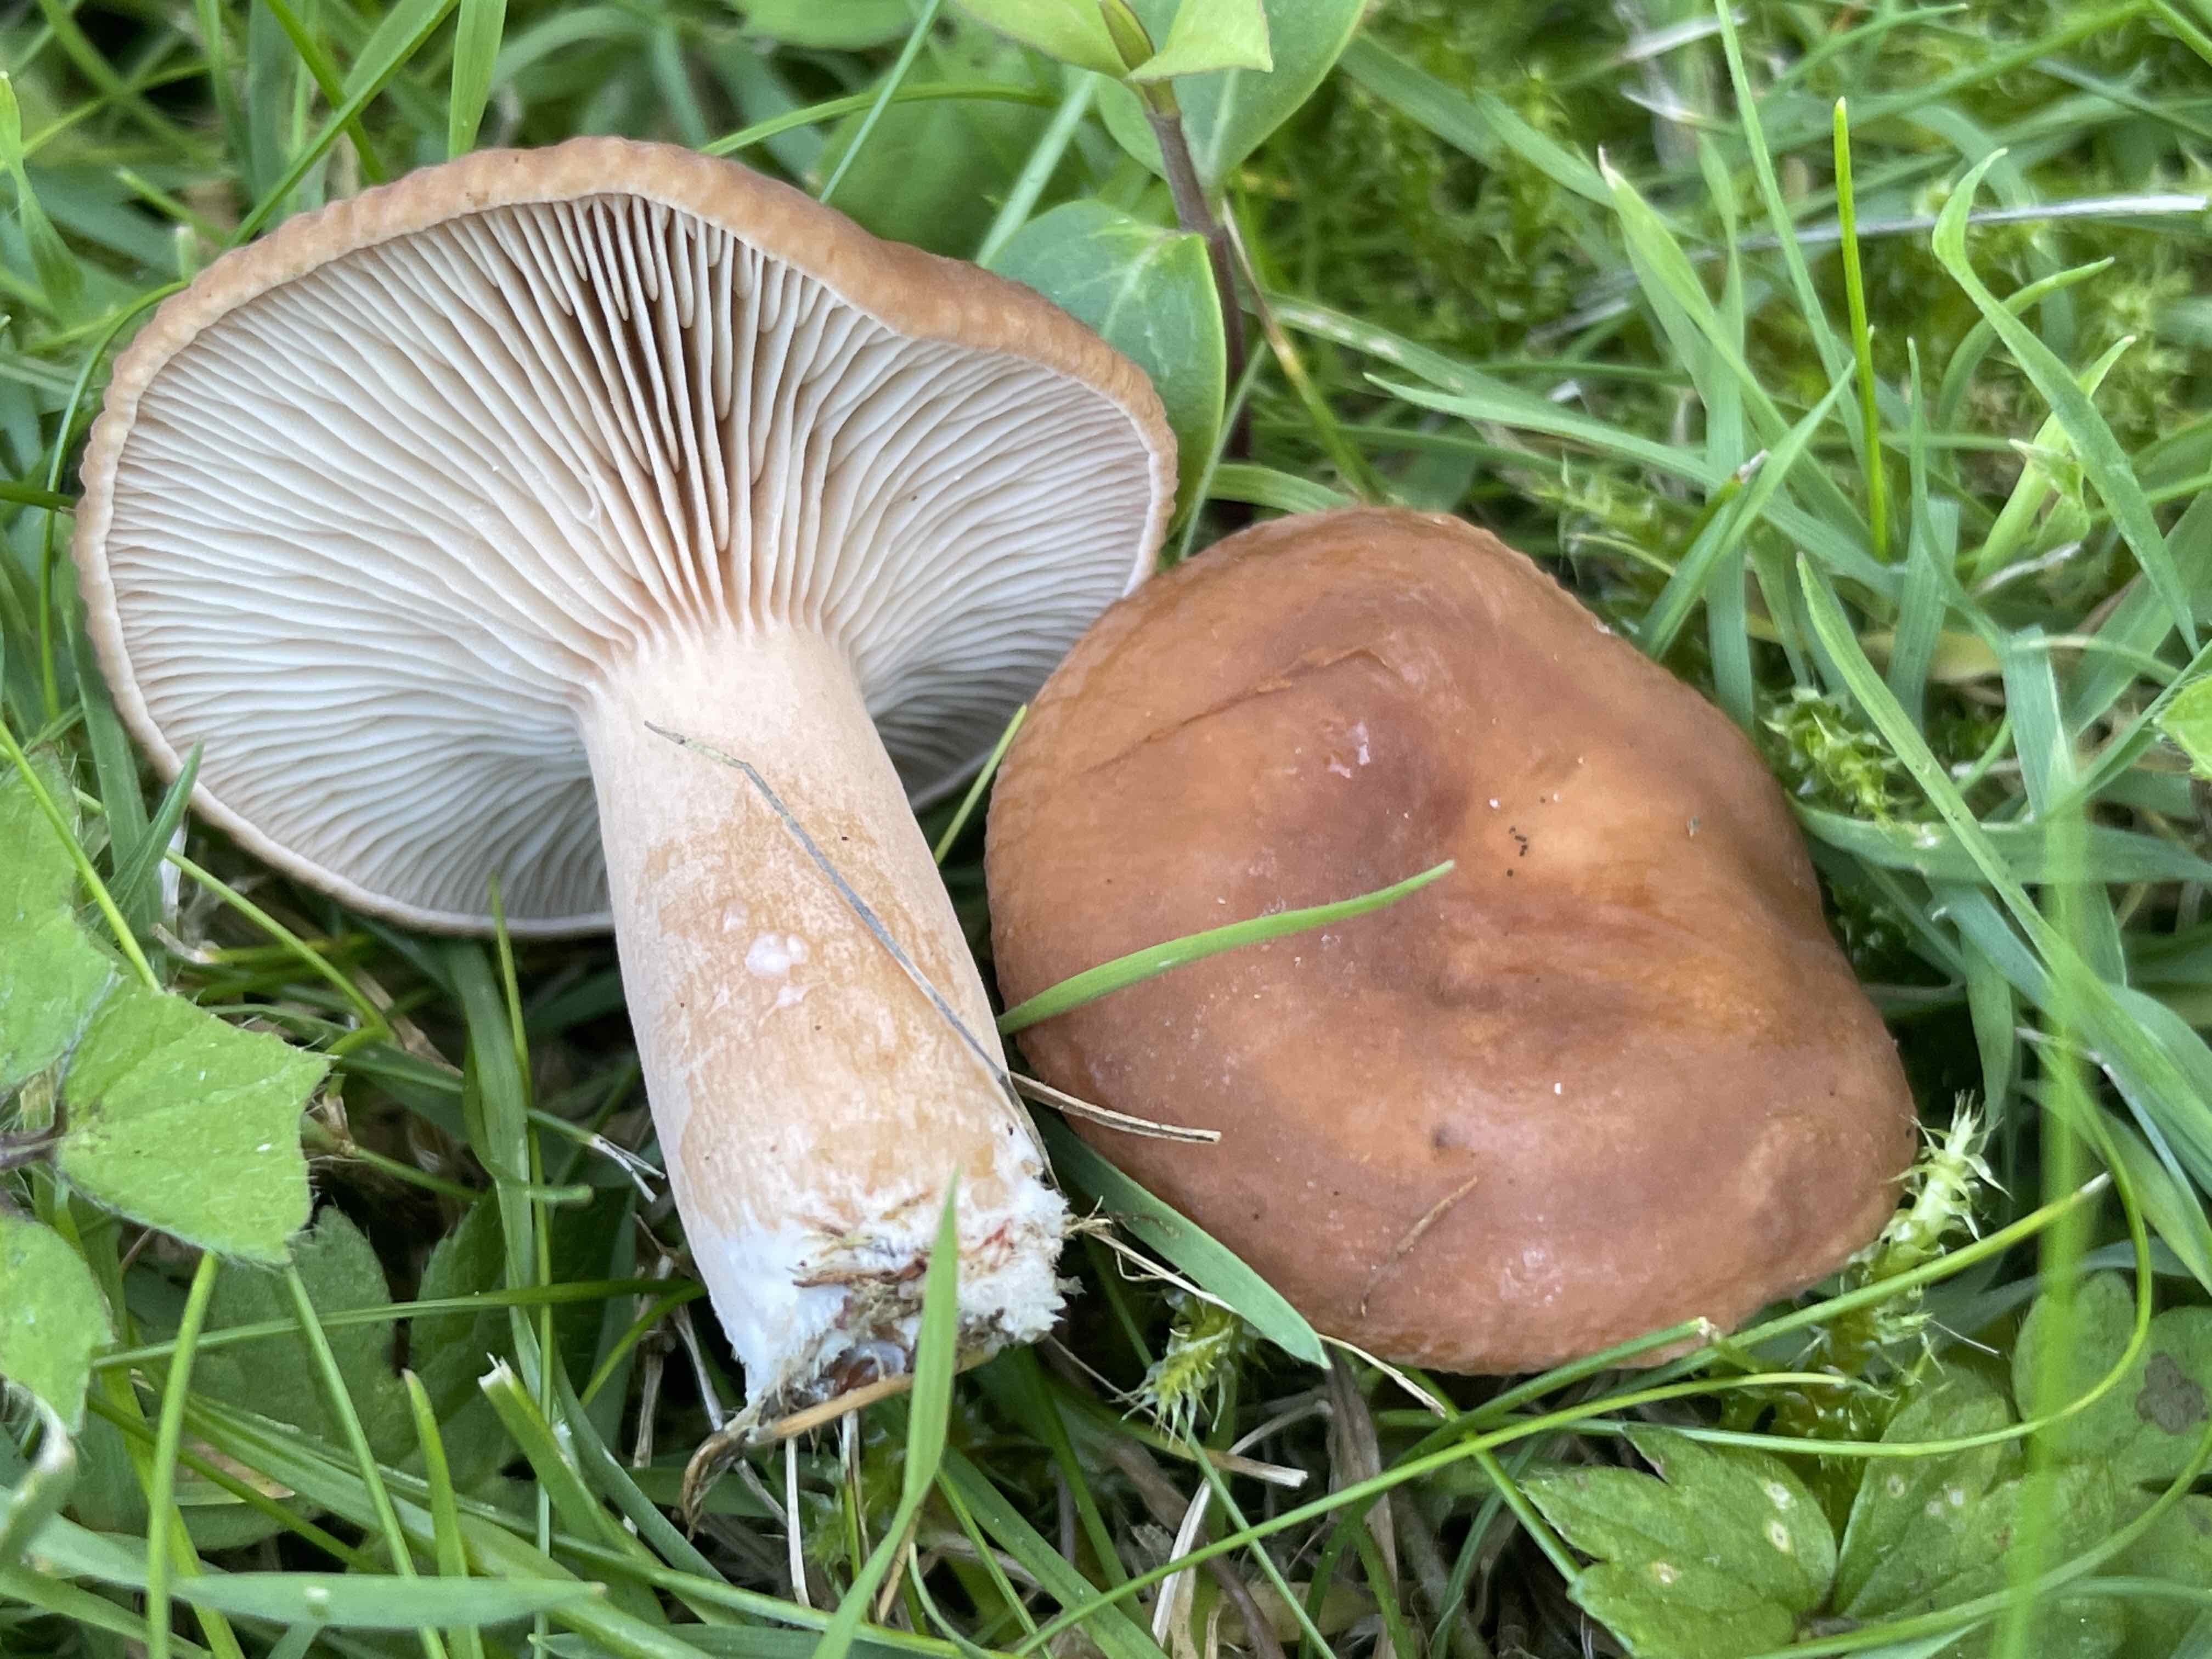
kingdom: Fungi
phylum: Basidiomycota
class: Agaricomycetes
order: Russulales
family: Russulaceae
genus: Lactarius
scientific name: Lactarius subdulcis
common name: sødlig mælkehat
